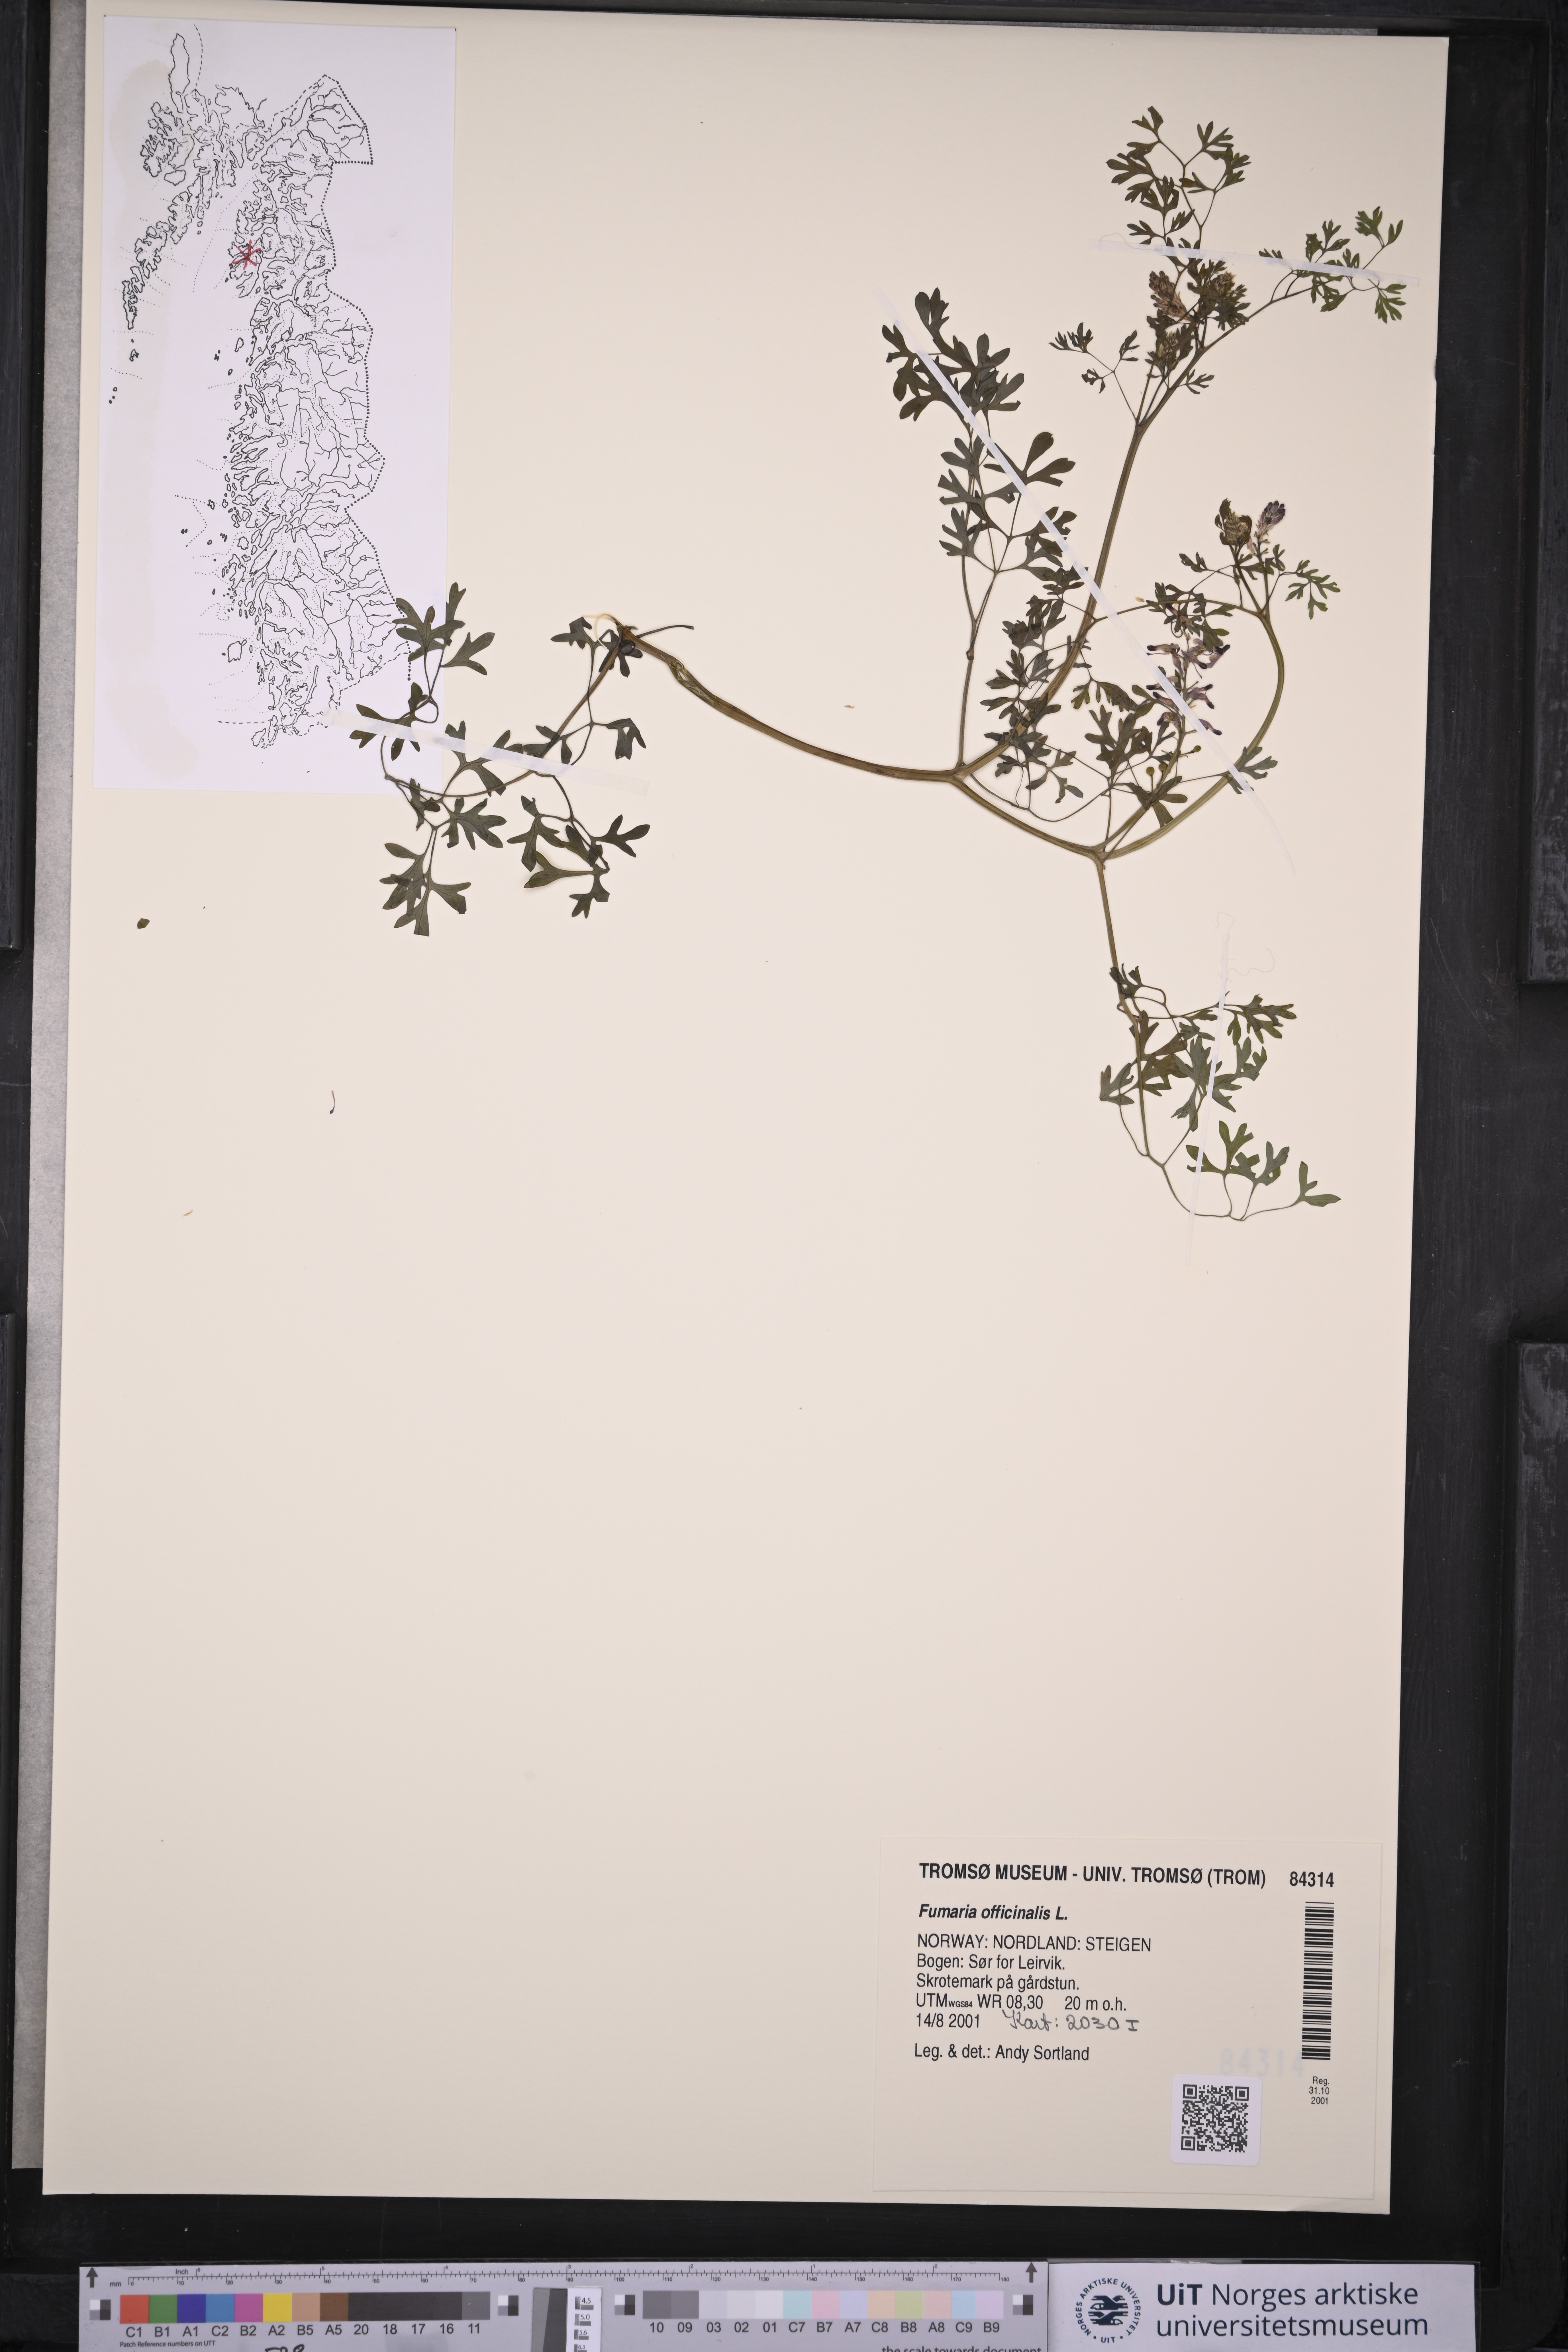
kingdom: Plantae
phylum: Tracheophyta
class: Magnoliopsida
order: Ranunculales
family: Papaveraceae
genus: Fumaria
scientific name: Fumaria officinalis
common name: Common fumitory
